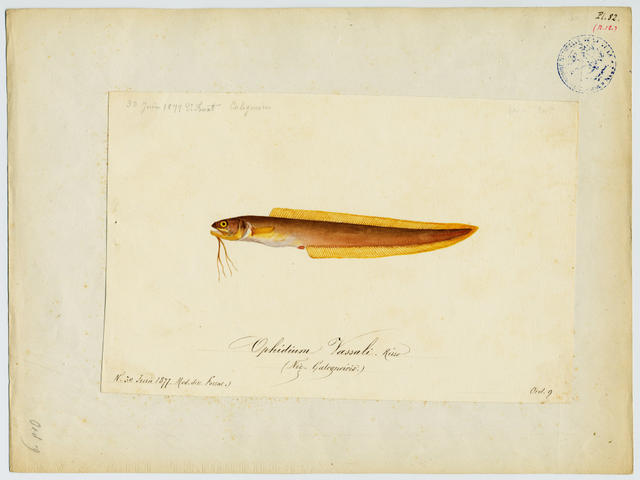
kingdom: Animalia
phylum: Chordata
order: Ophidiiformes
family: Ophidiidae
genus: Parophidion
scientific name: Parophidion vassali
